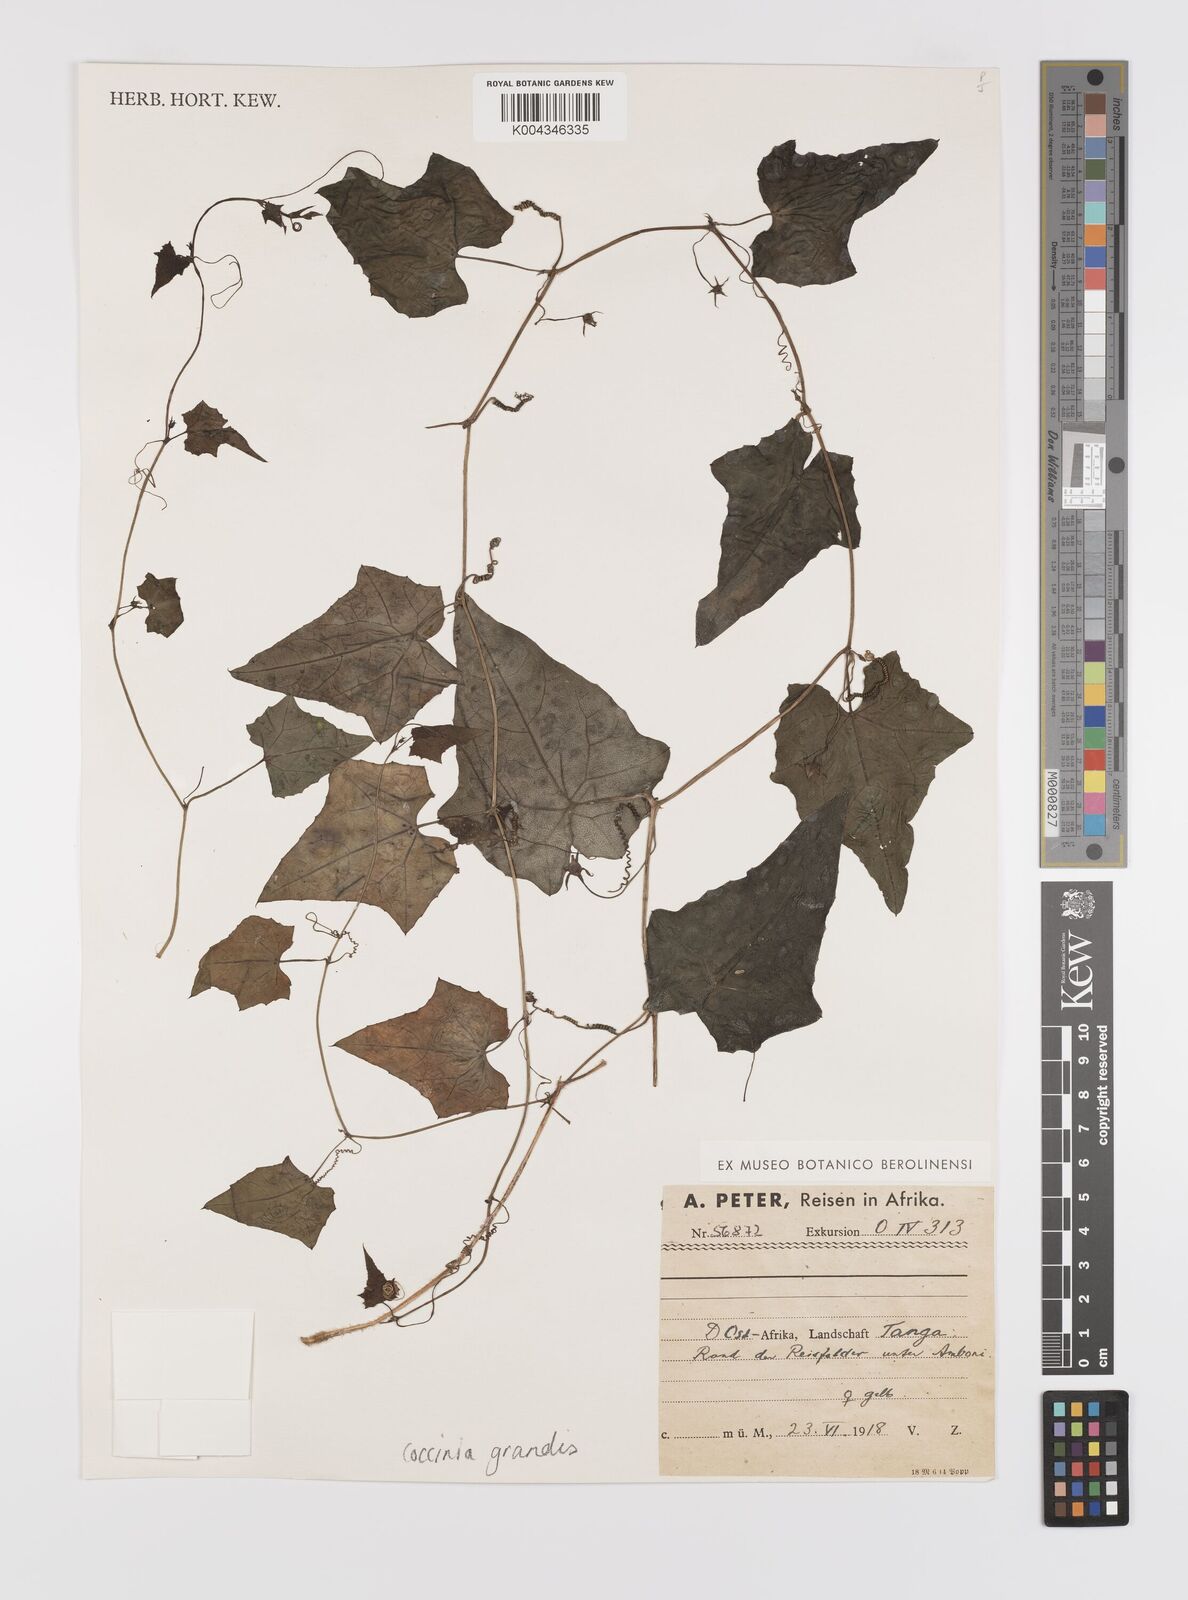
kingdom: Plantae
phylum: Tracheophyta
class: Magnoliopsida
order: Cucurbitales
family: Cucurbitaceae
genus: Coccinia
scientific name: Coccinia grandis
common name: Ivy gourd
